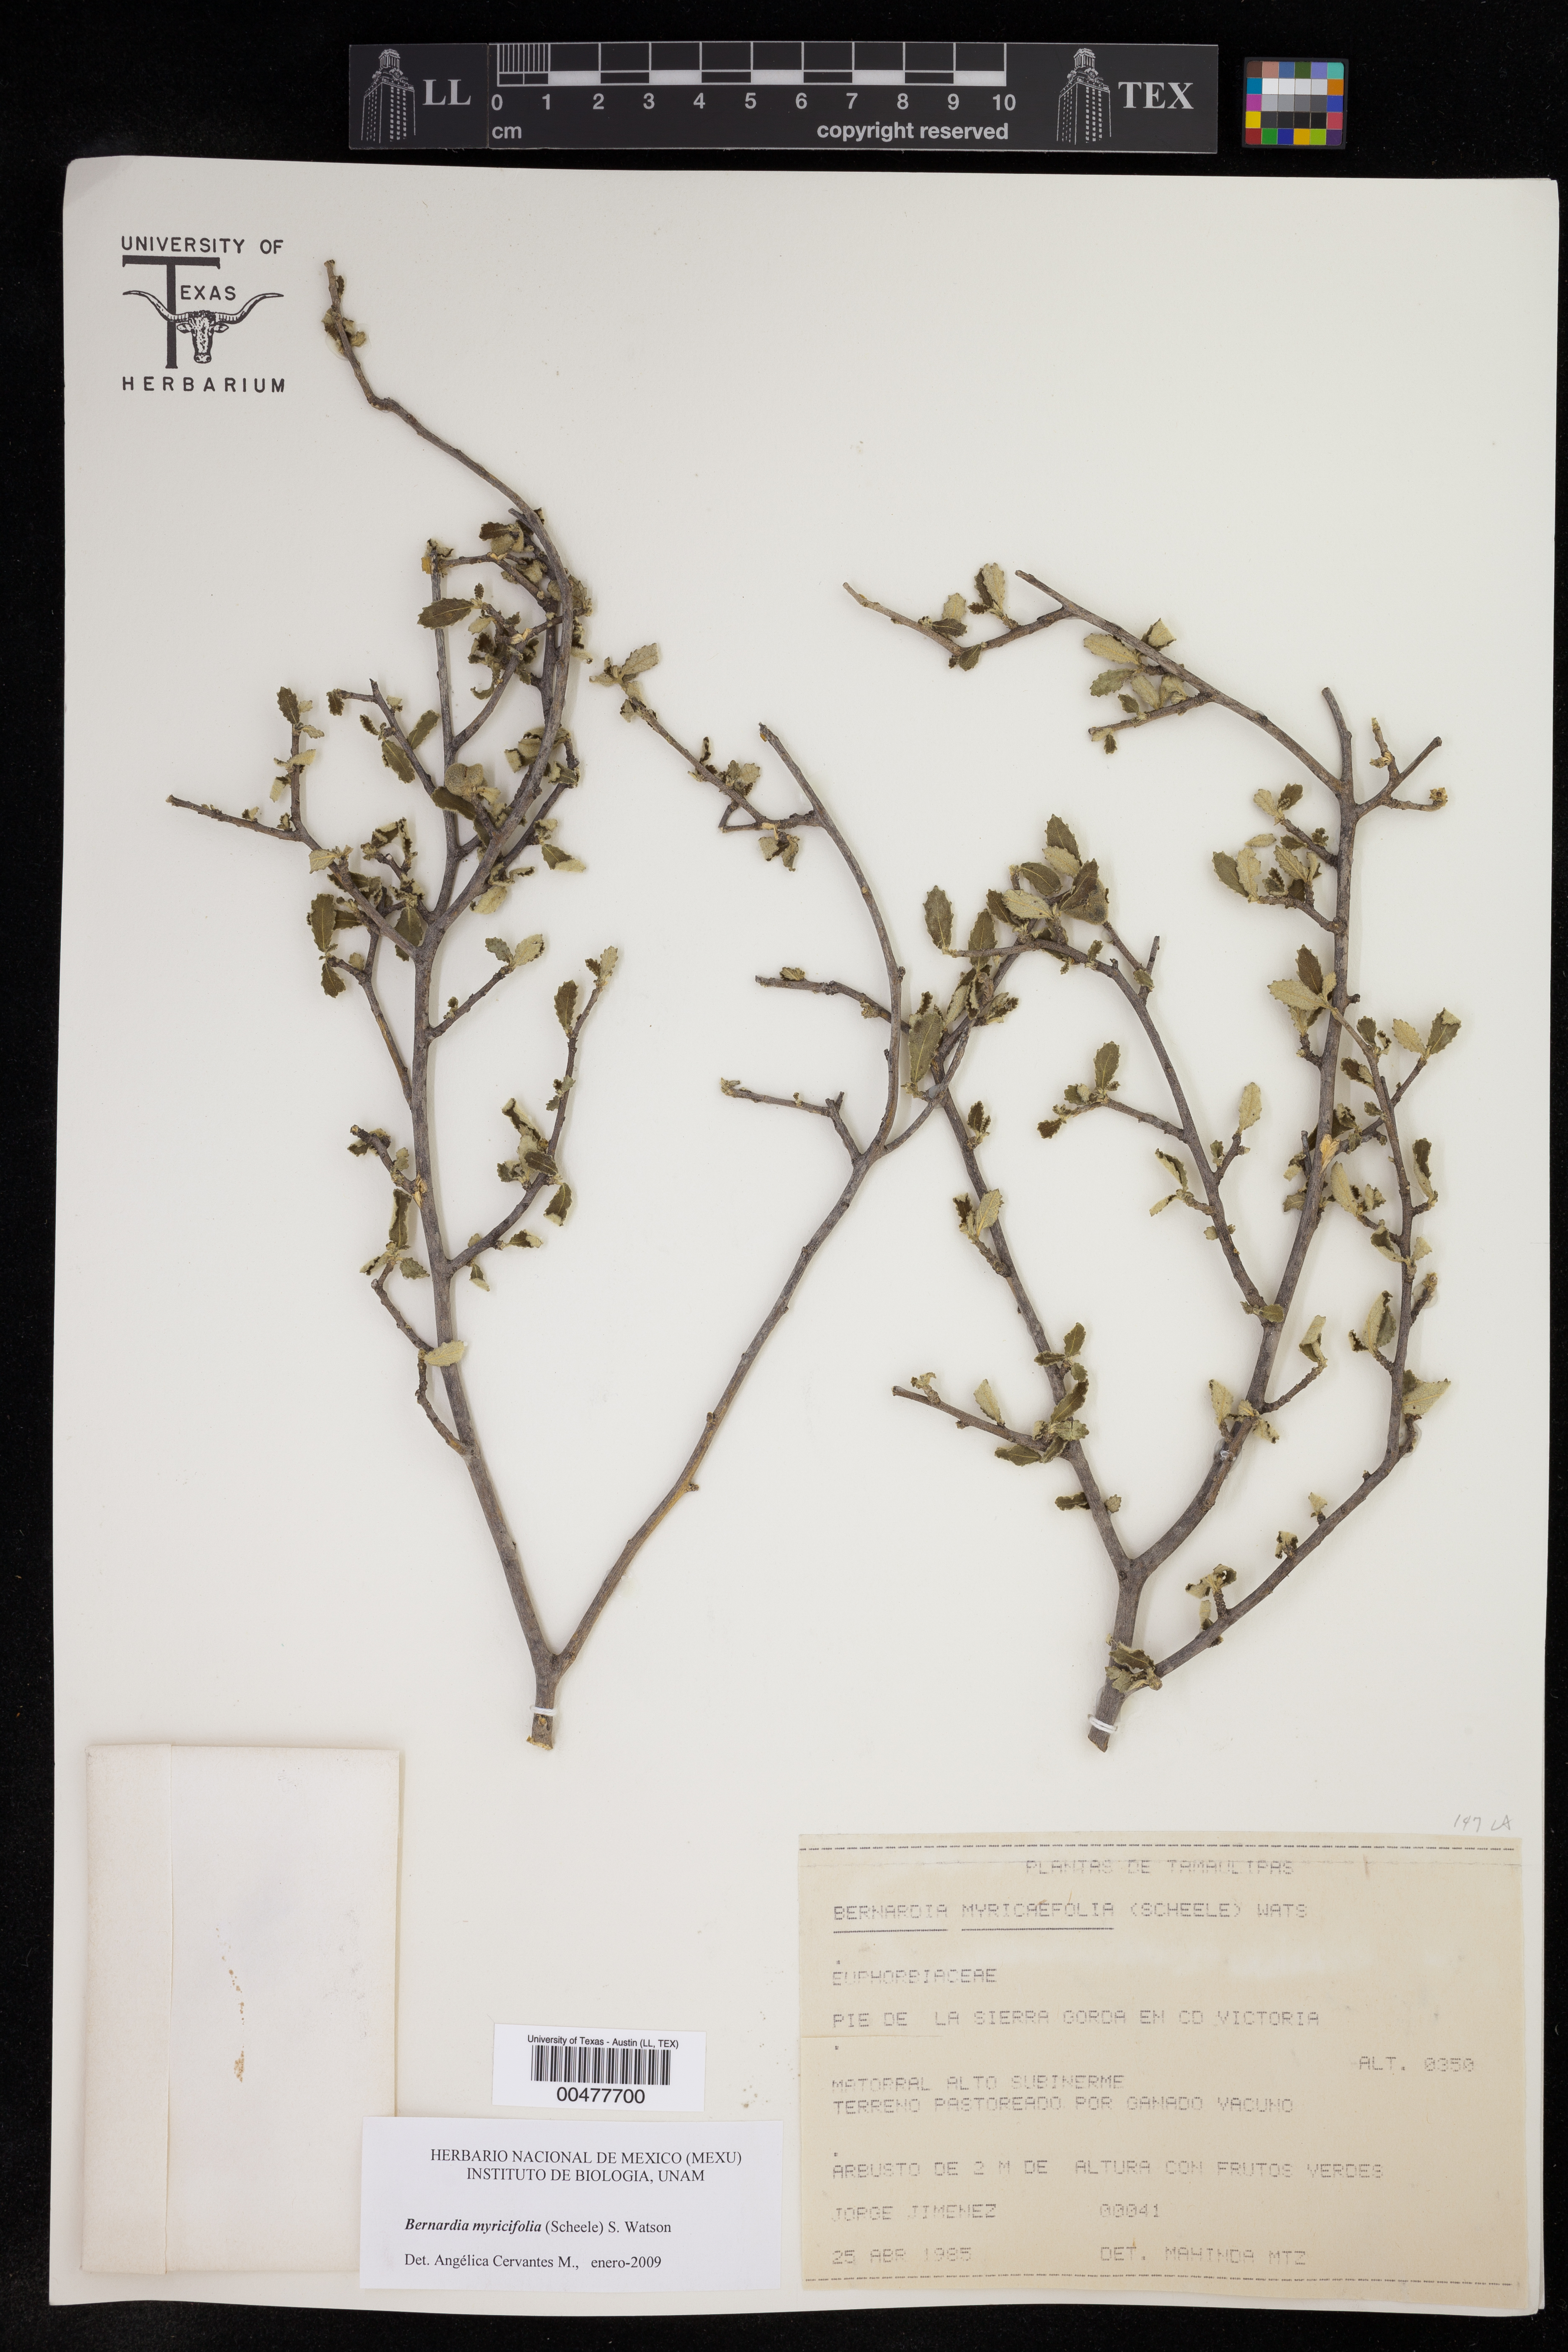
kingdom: Plantae
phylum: Tracheophyta
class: Magnoliopsida
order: Malpighiales
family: Euphorbiaceae
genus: Bernardia
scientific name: Bernardia myricifolia
